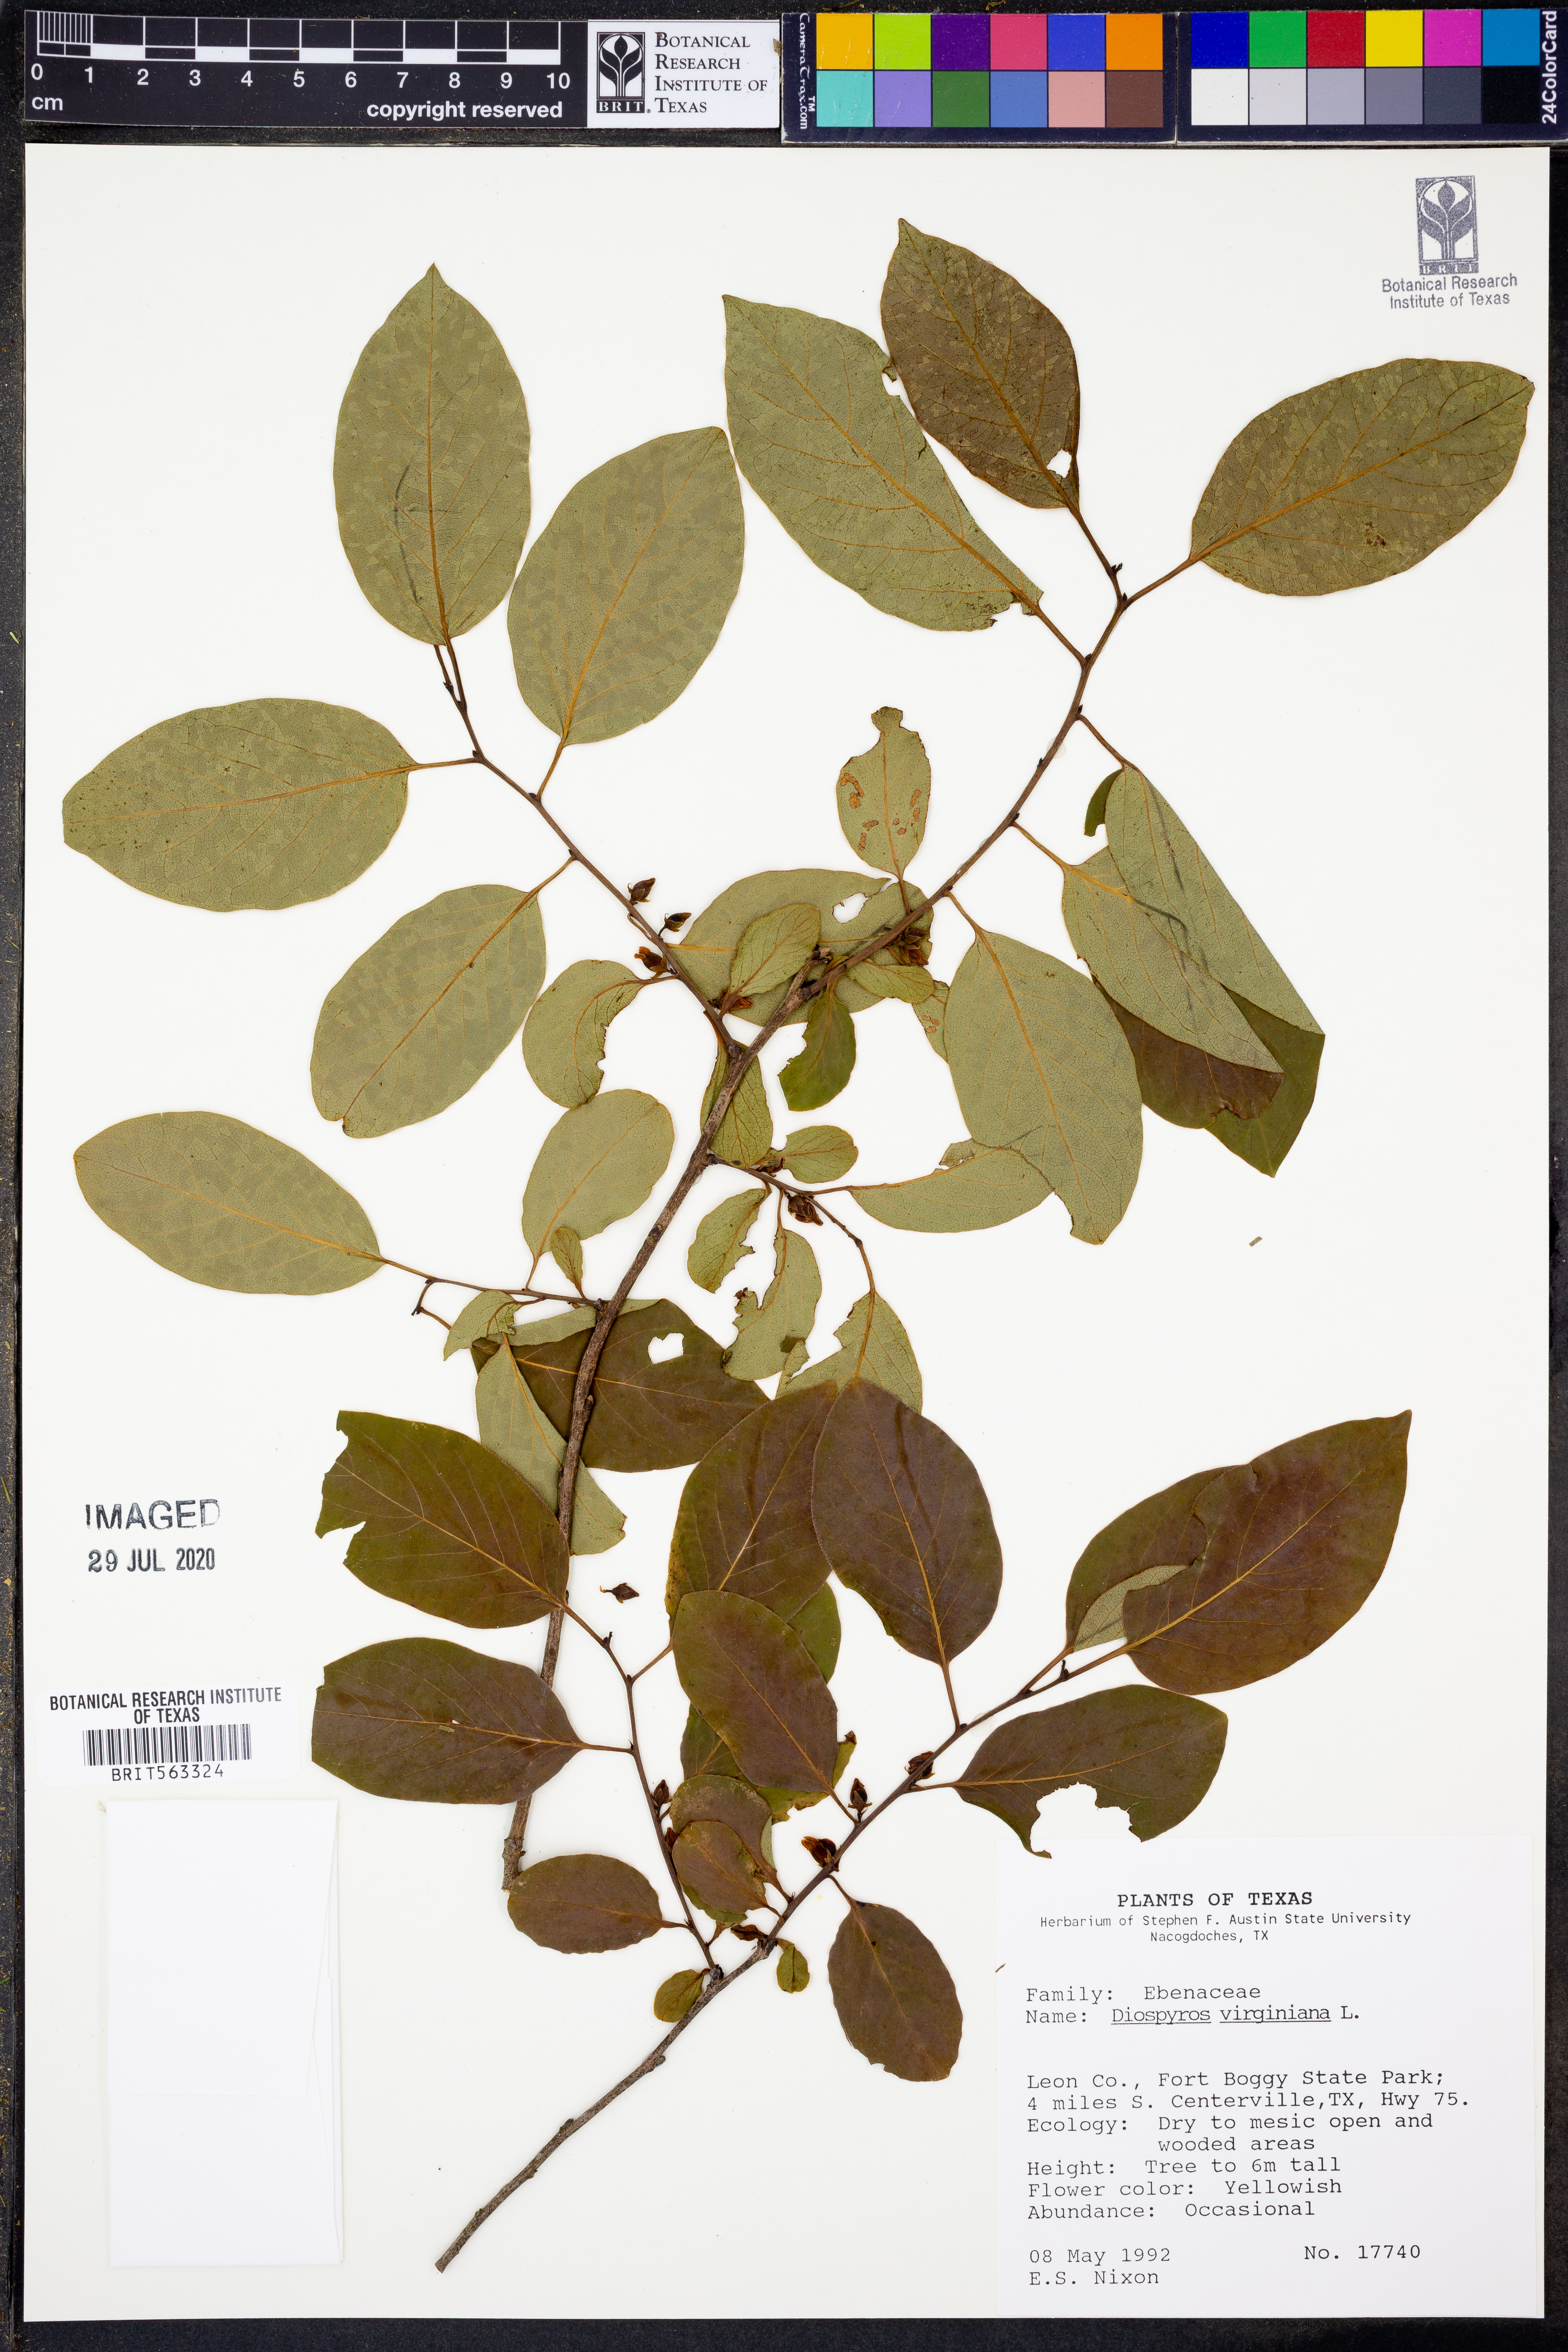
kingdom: Plantae
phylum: Tracheophyta
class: Magnoliopsida
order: Ericales
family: Ebenaceae
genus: Diospyros
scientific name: Diospyros virginiana
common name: Persimmon
